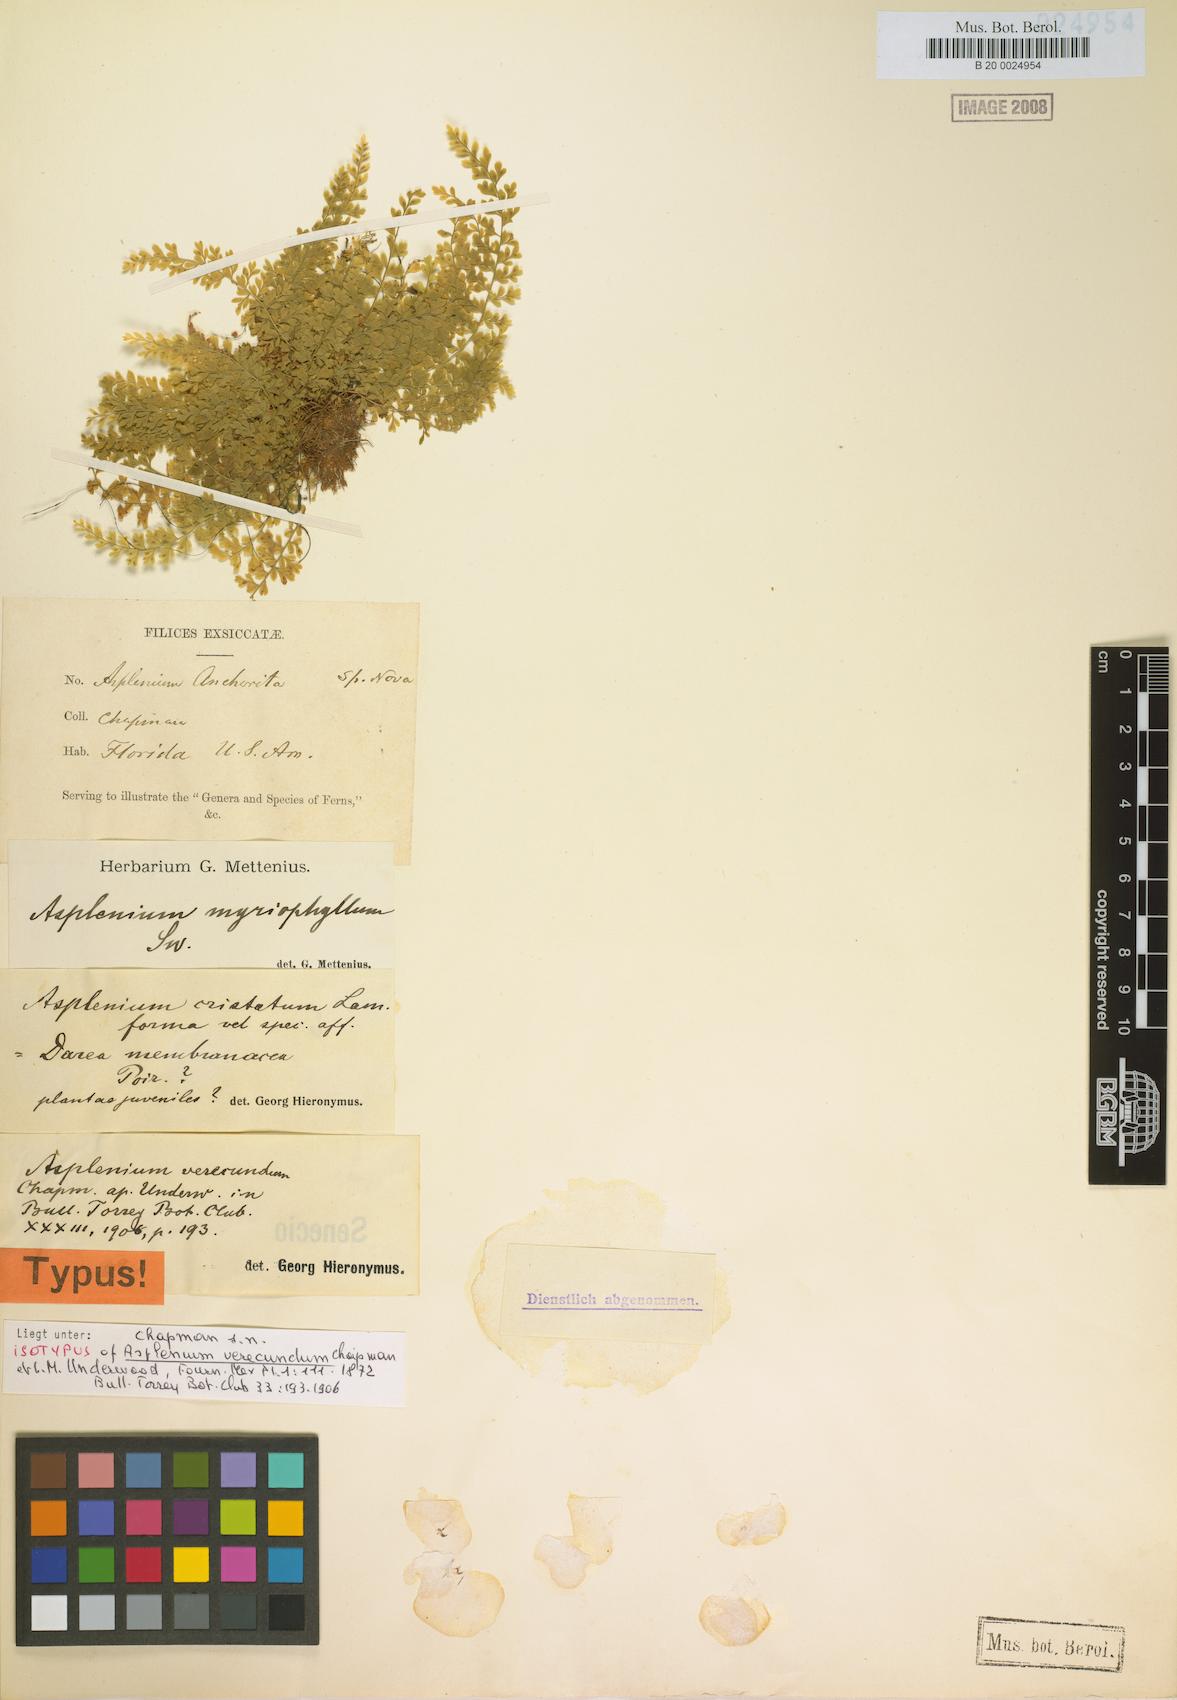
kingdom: Plantae
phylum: Tracheophyta
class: Polypodiopsida
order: Polypodiales
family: Aspleniaceae
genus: Asplenium
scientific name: Asplenium myriophyllum
